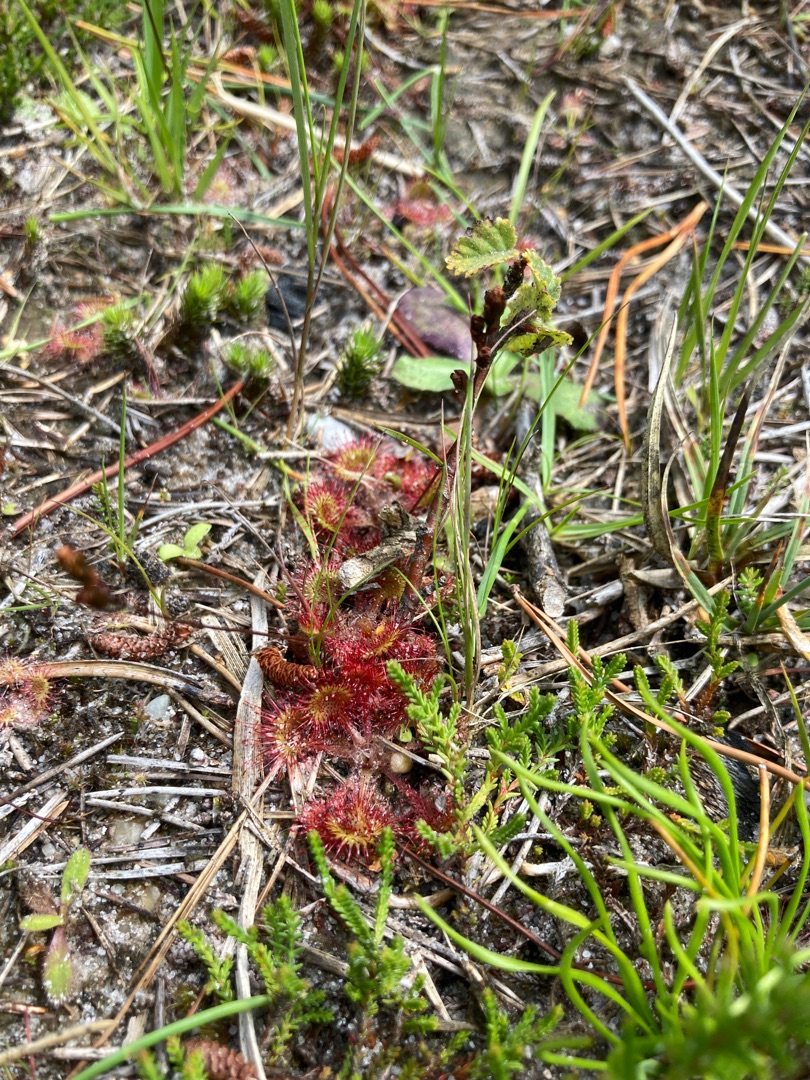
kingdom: Plantae
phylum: Tracheophyta
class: Magnoliopsida
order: Caryophyllales
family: Droseraceae
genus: Drosera
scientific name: Drosera rotundifolia
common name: Rundbladet soldug
